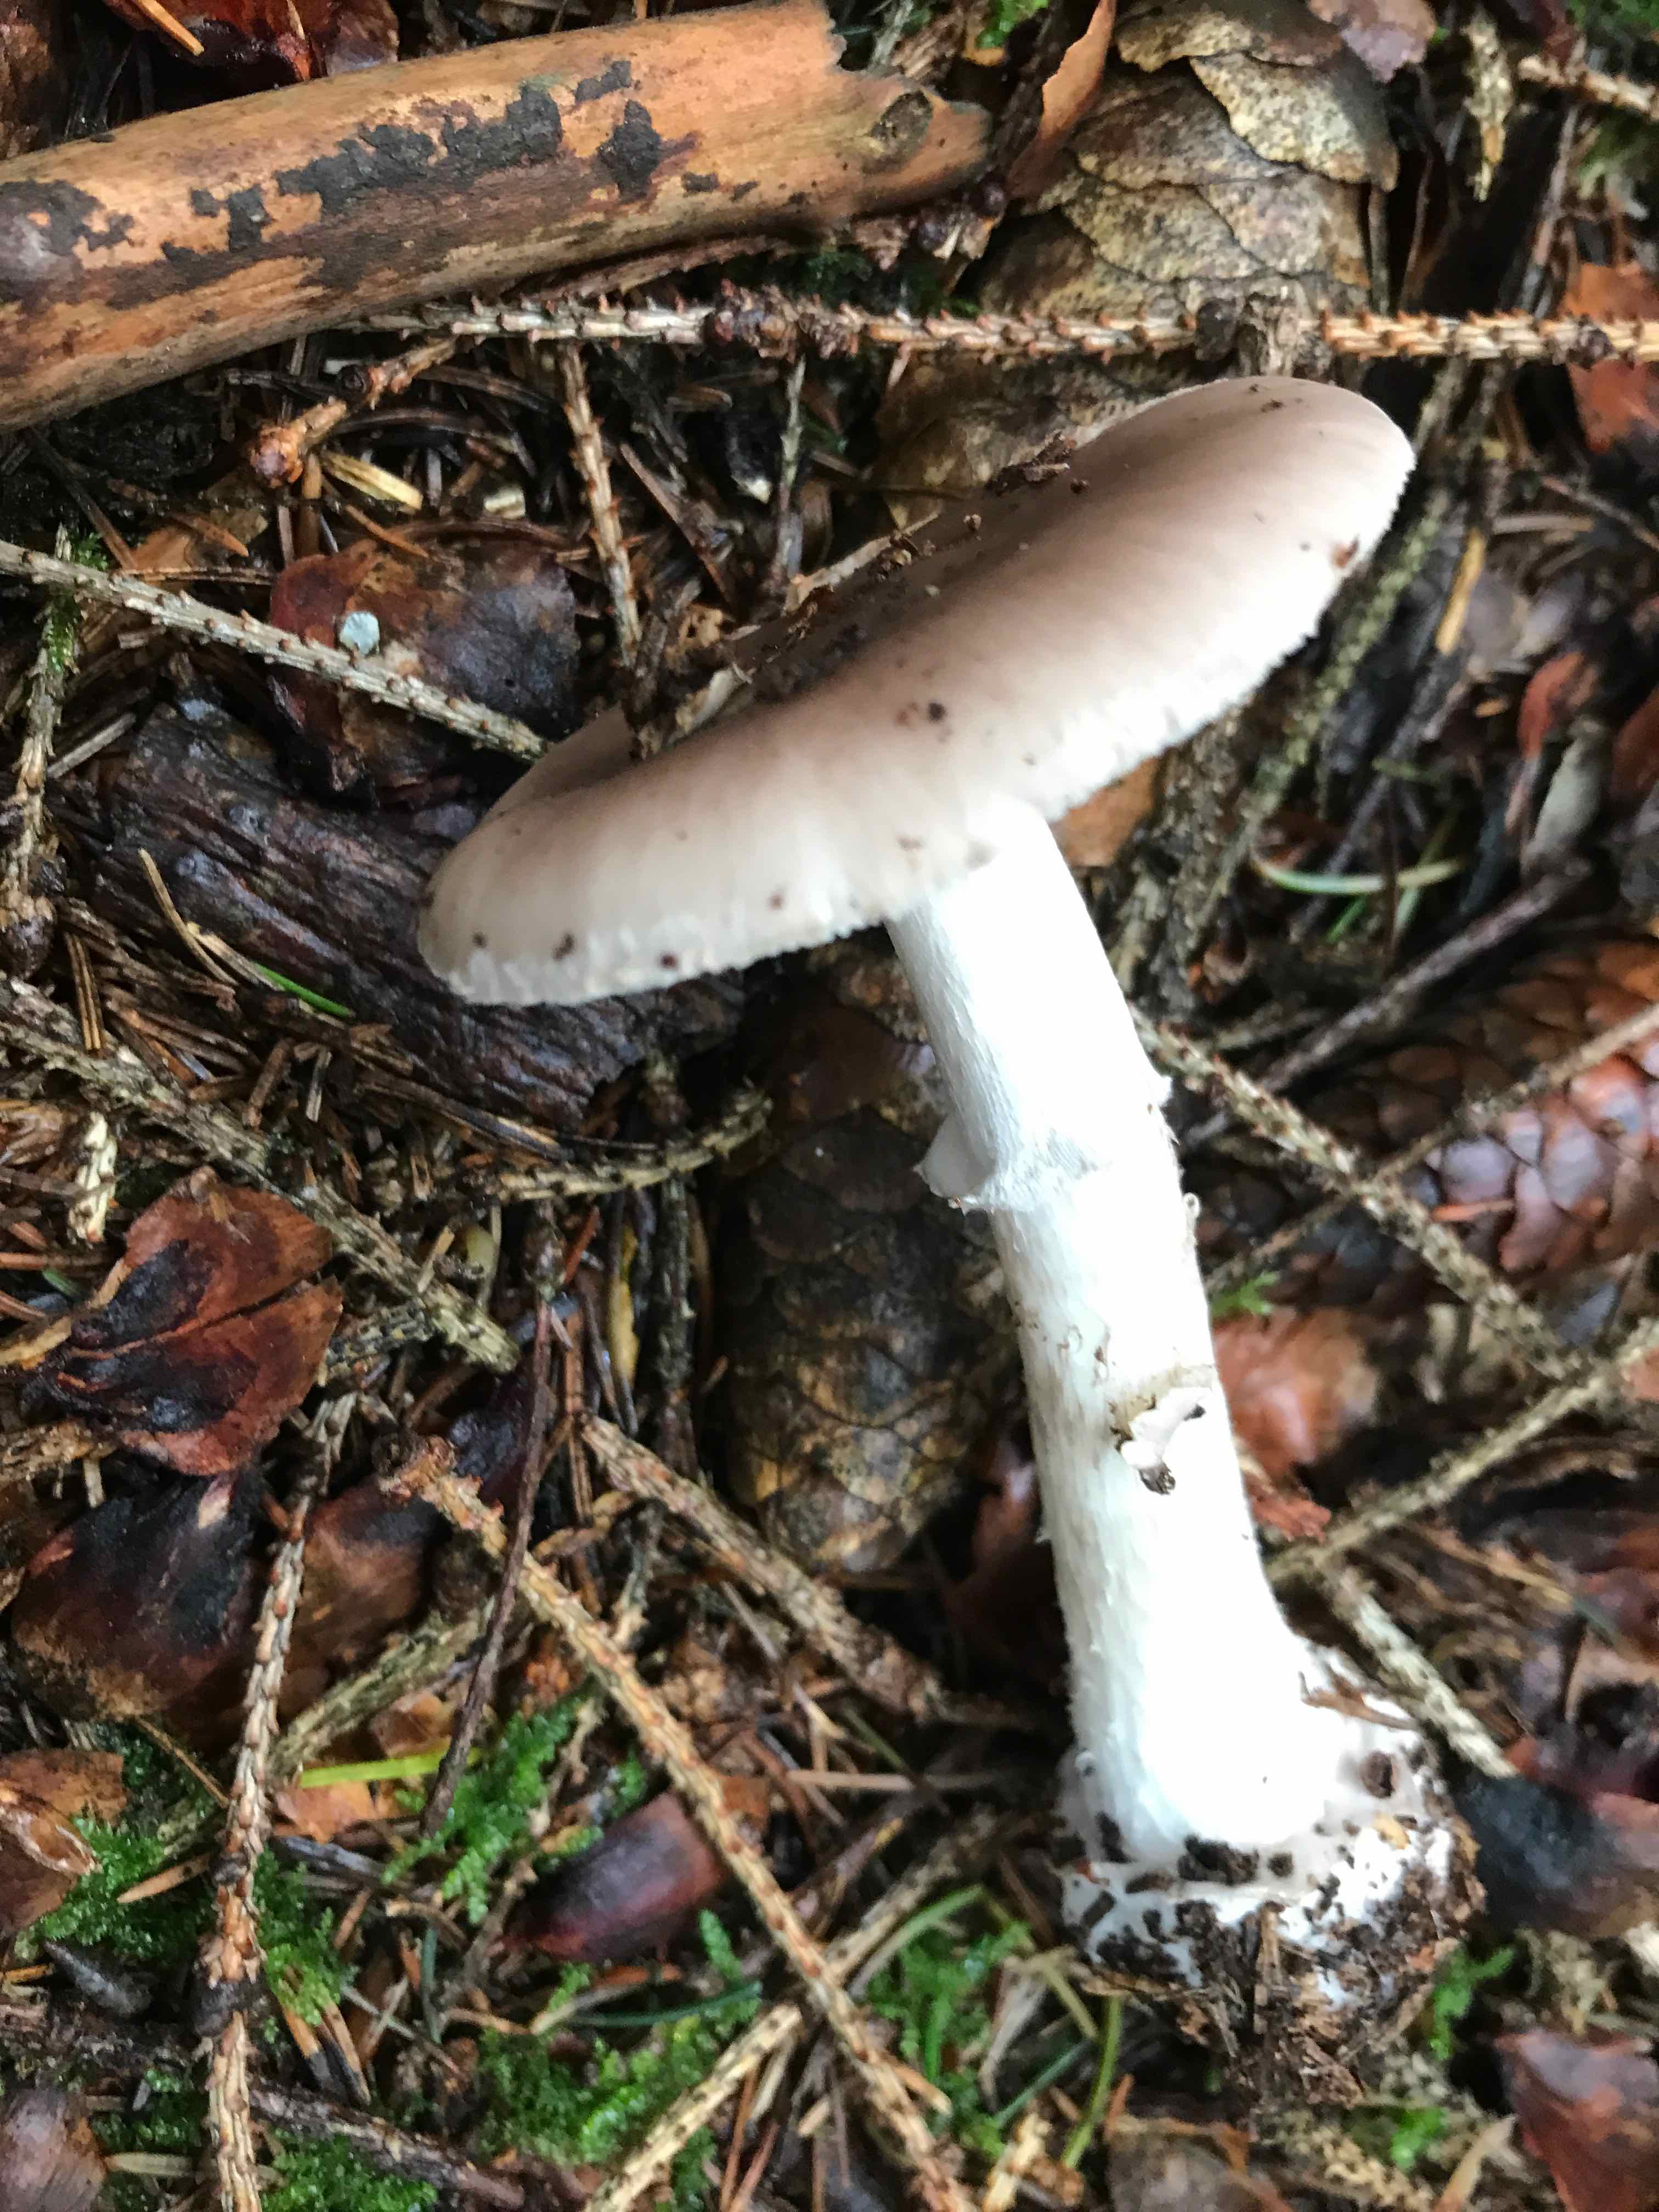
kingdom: Fungi
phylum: Basidiomycota
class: Agaricomycetes
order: Agaricales
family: Amanitaceae
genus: Amanita
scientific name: Amanita porphyria
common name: porfyr-fluesvamp
